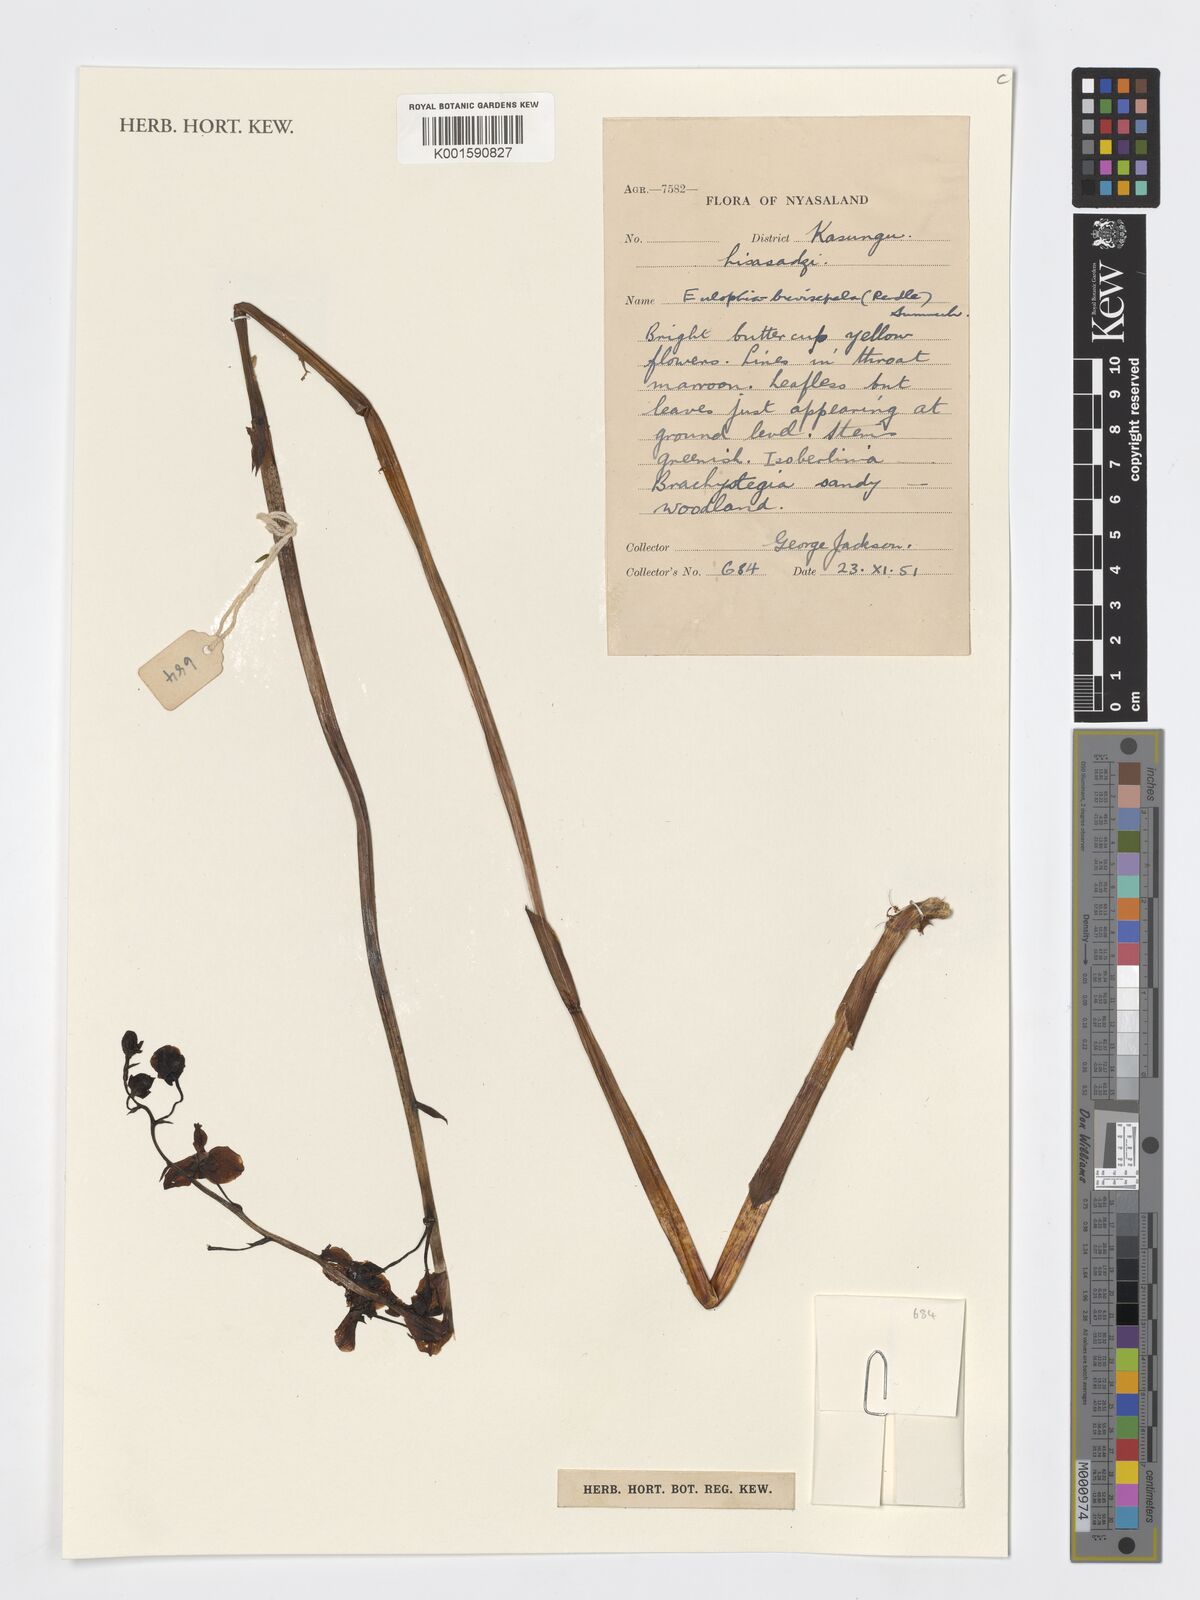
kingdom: Plantae
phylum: Tracheophyta
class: Liliopsida
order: Asparagales
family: Orchidaceae
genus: Eulophia
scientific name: Eulophia speciosa
